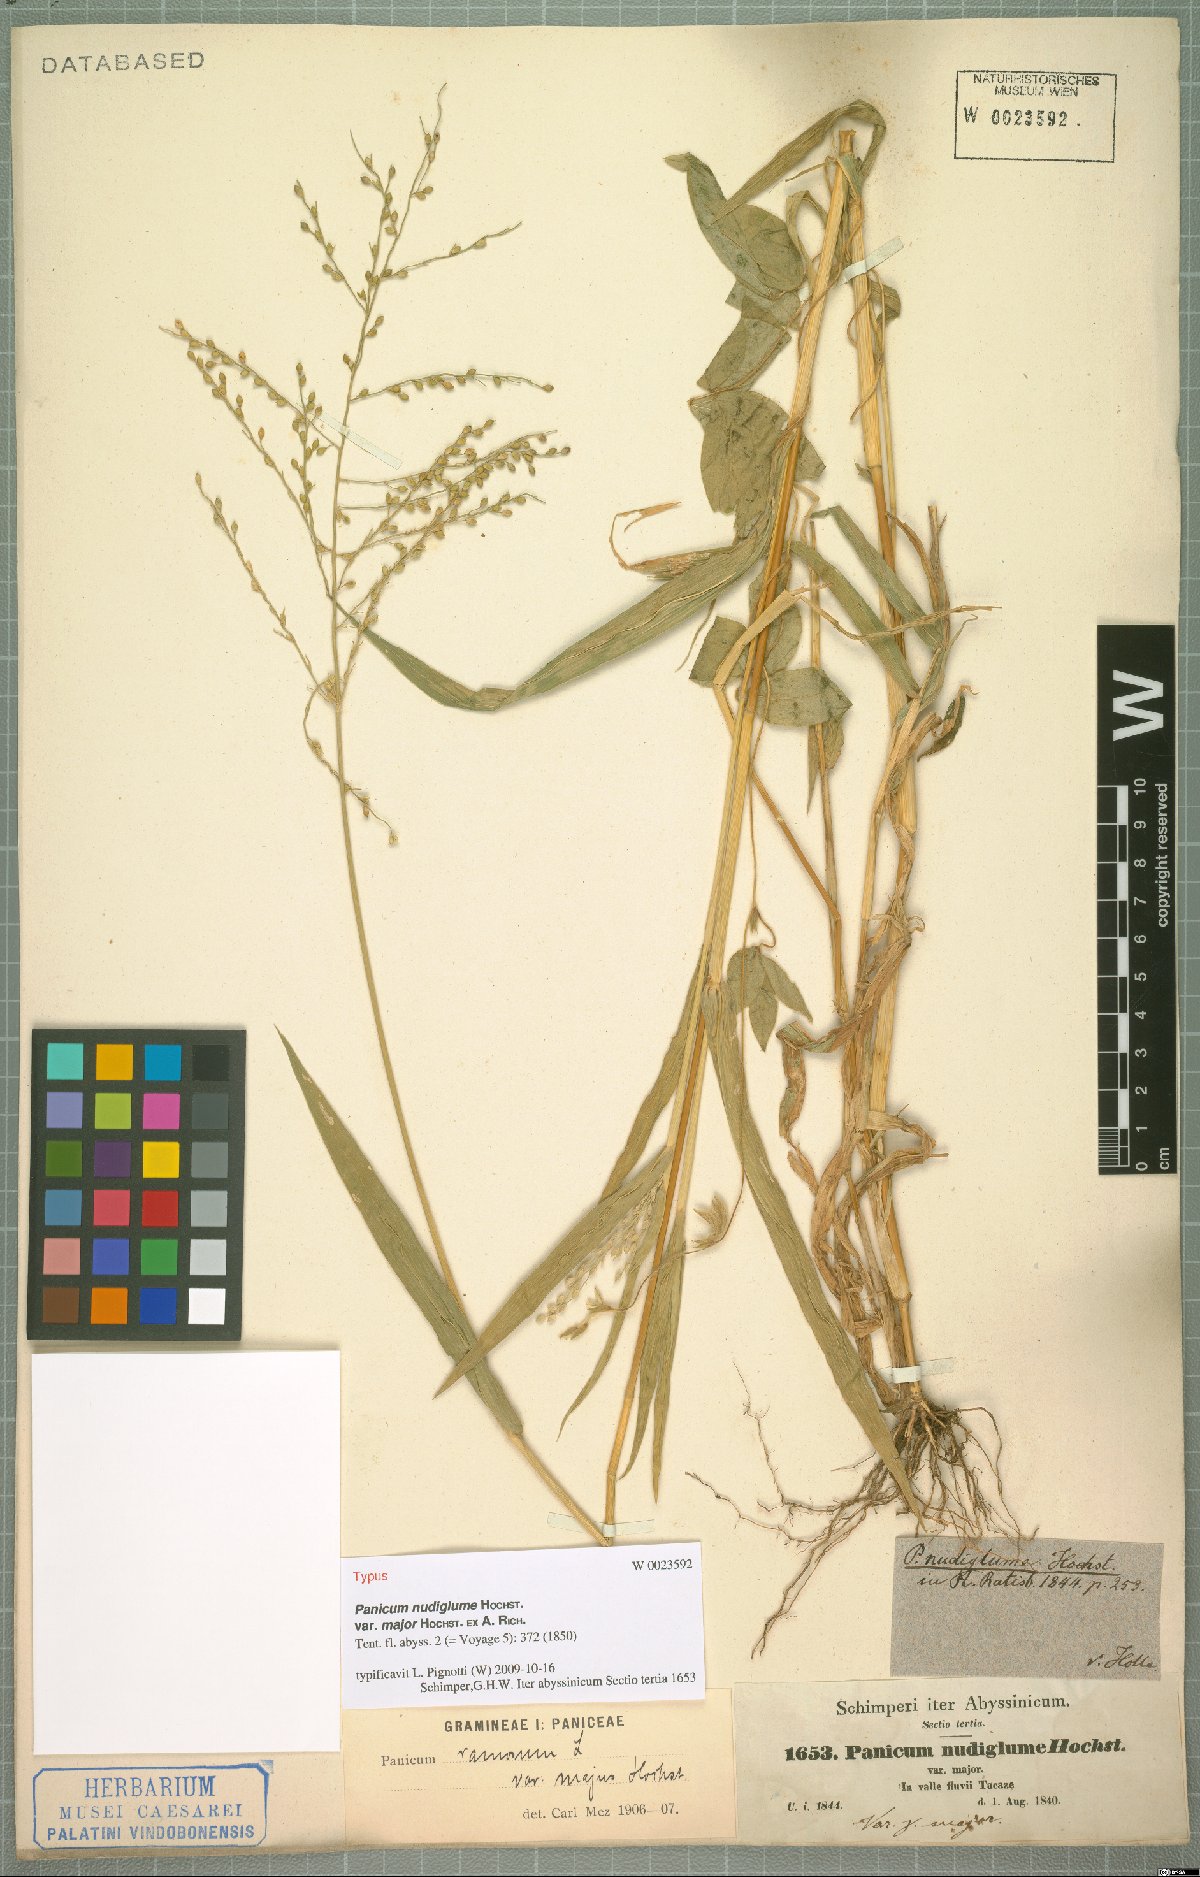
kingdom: Plantae
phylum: Tracheophyta
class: Liliopsida
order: Poales
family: Poaceae
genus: Urochloa
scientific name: Urochloa
